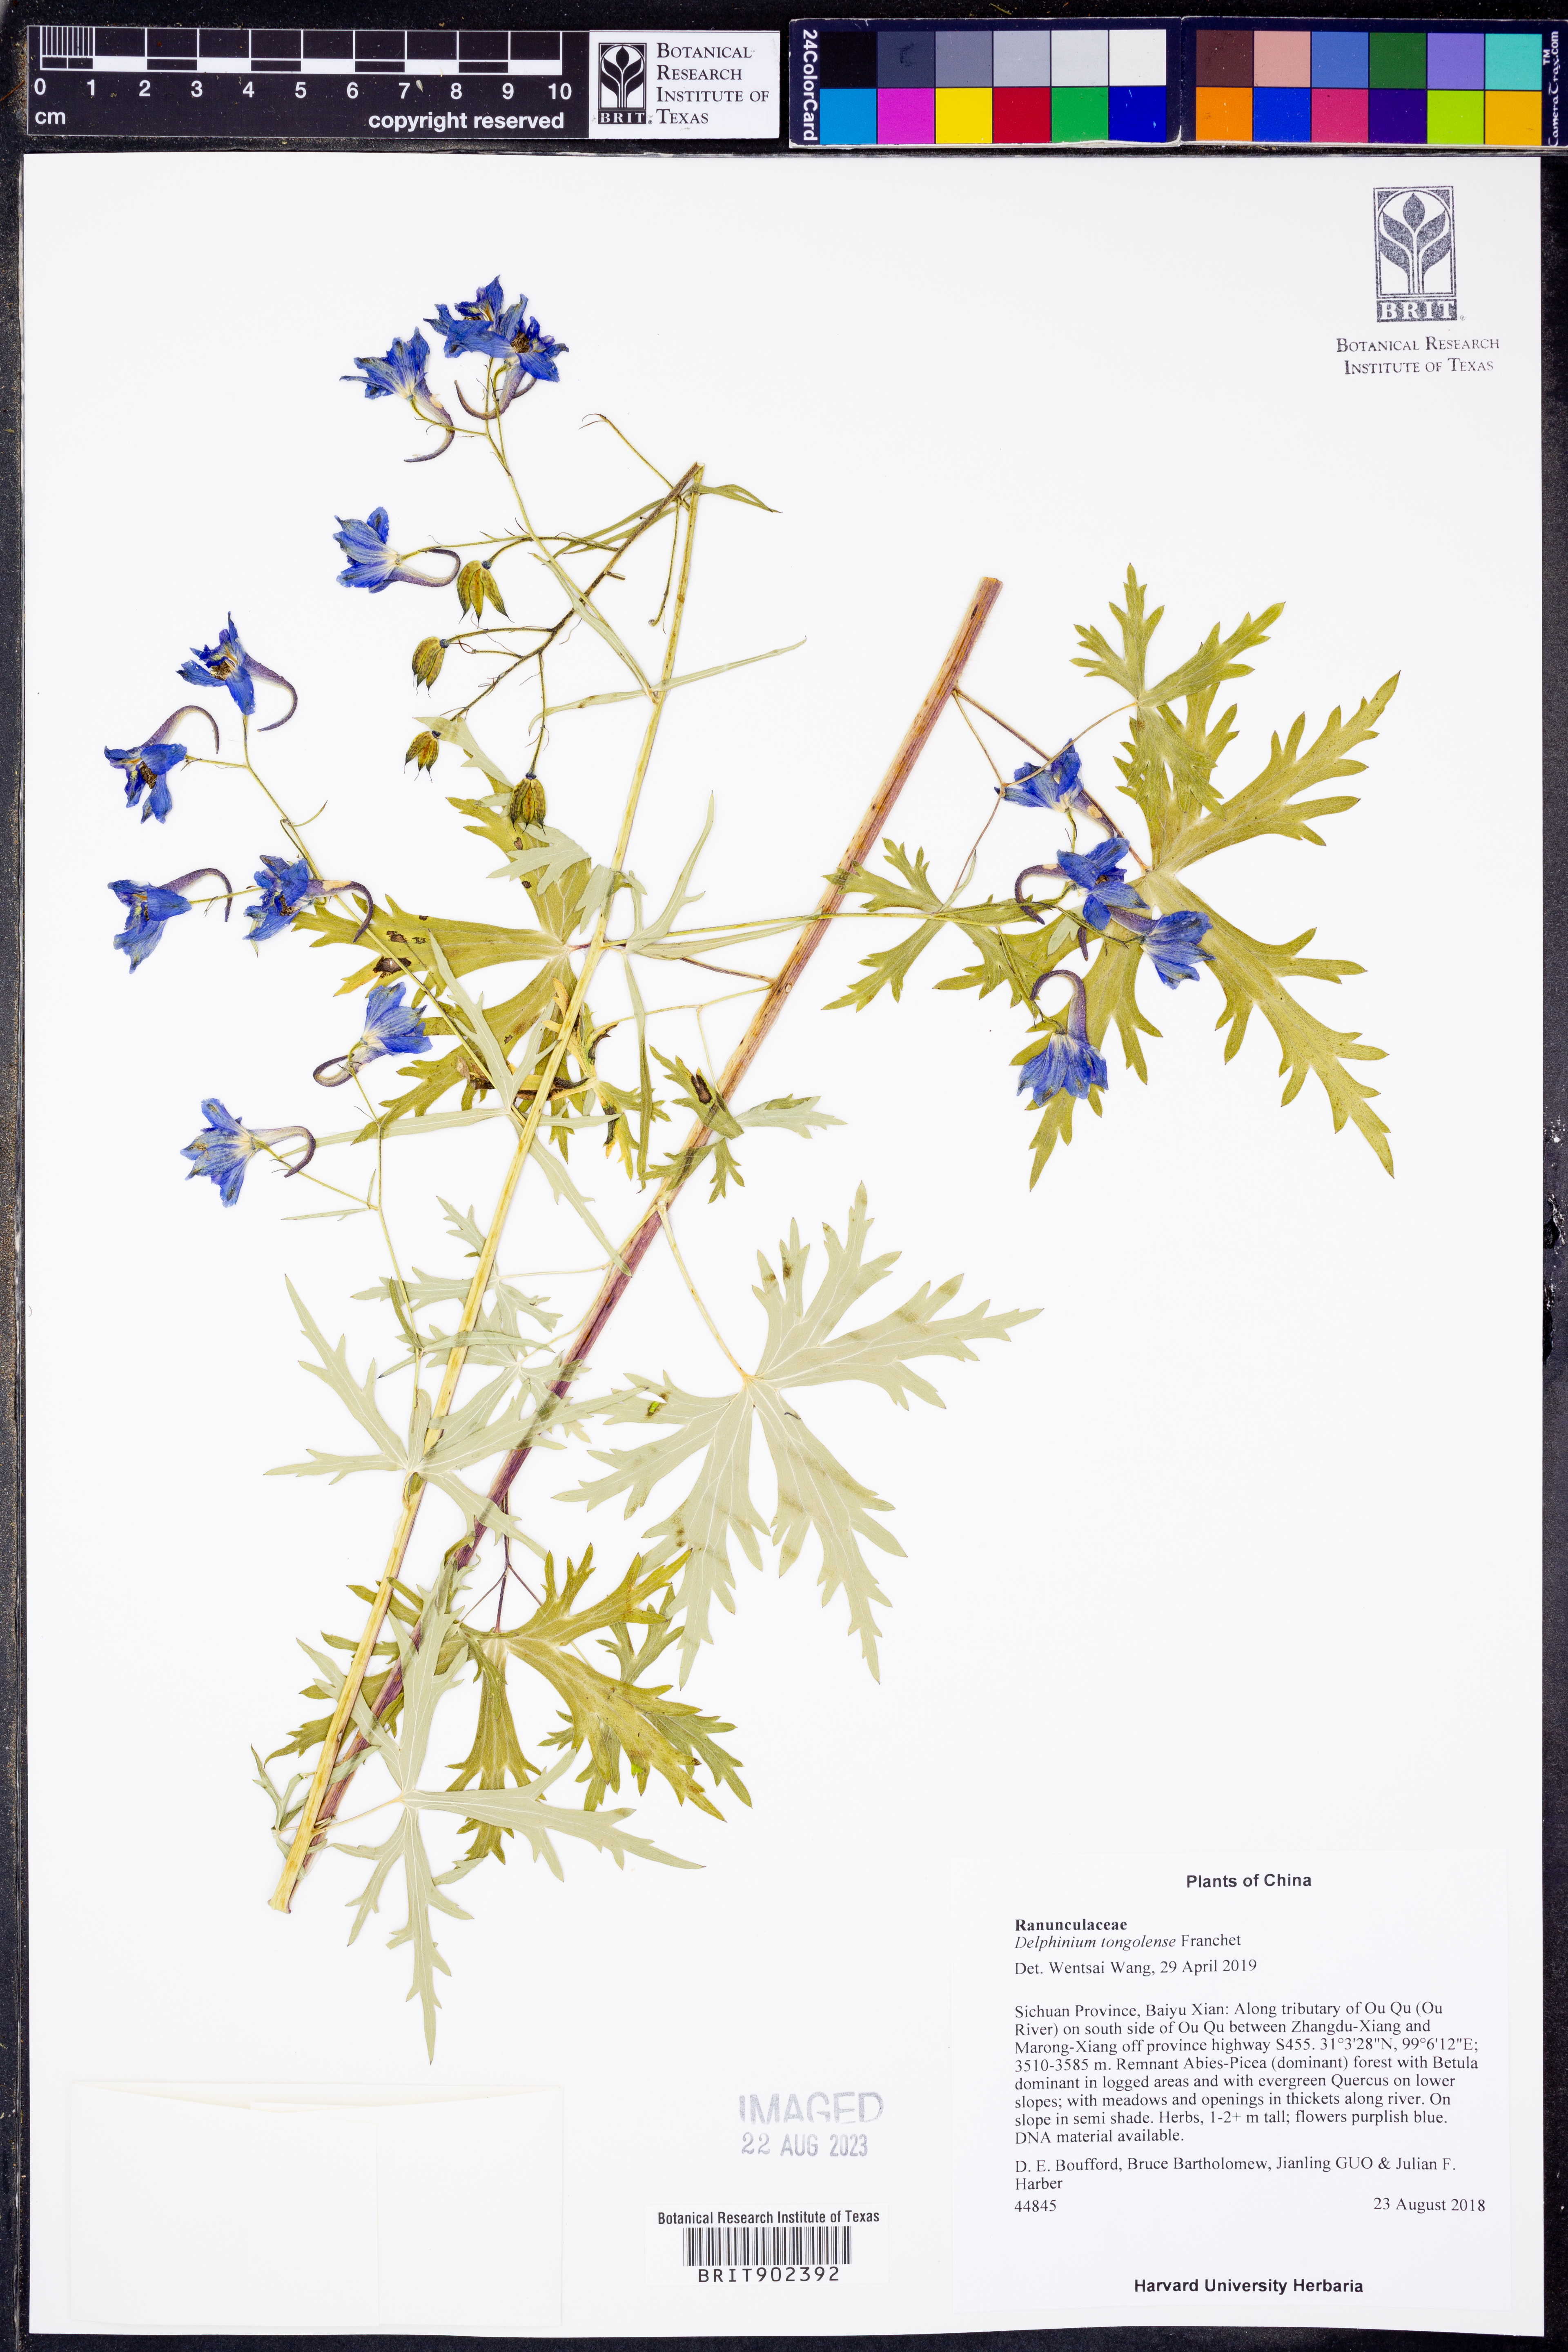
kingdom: Plantae
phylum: Tracheophyta
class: Magnoliopsida
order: Ranunculales
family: Ranunculaceae
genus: Delphinium
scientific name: Delphinium
